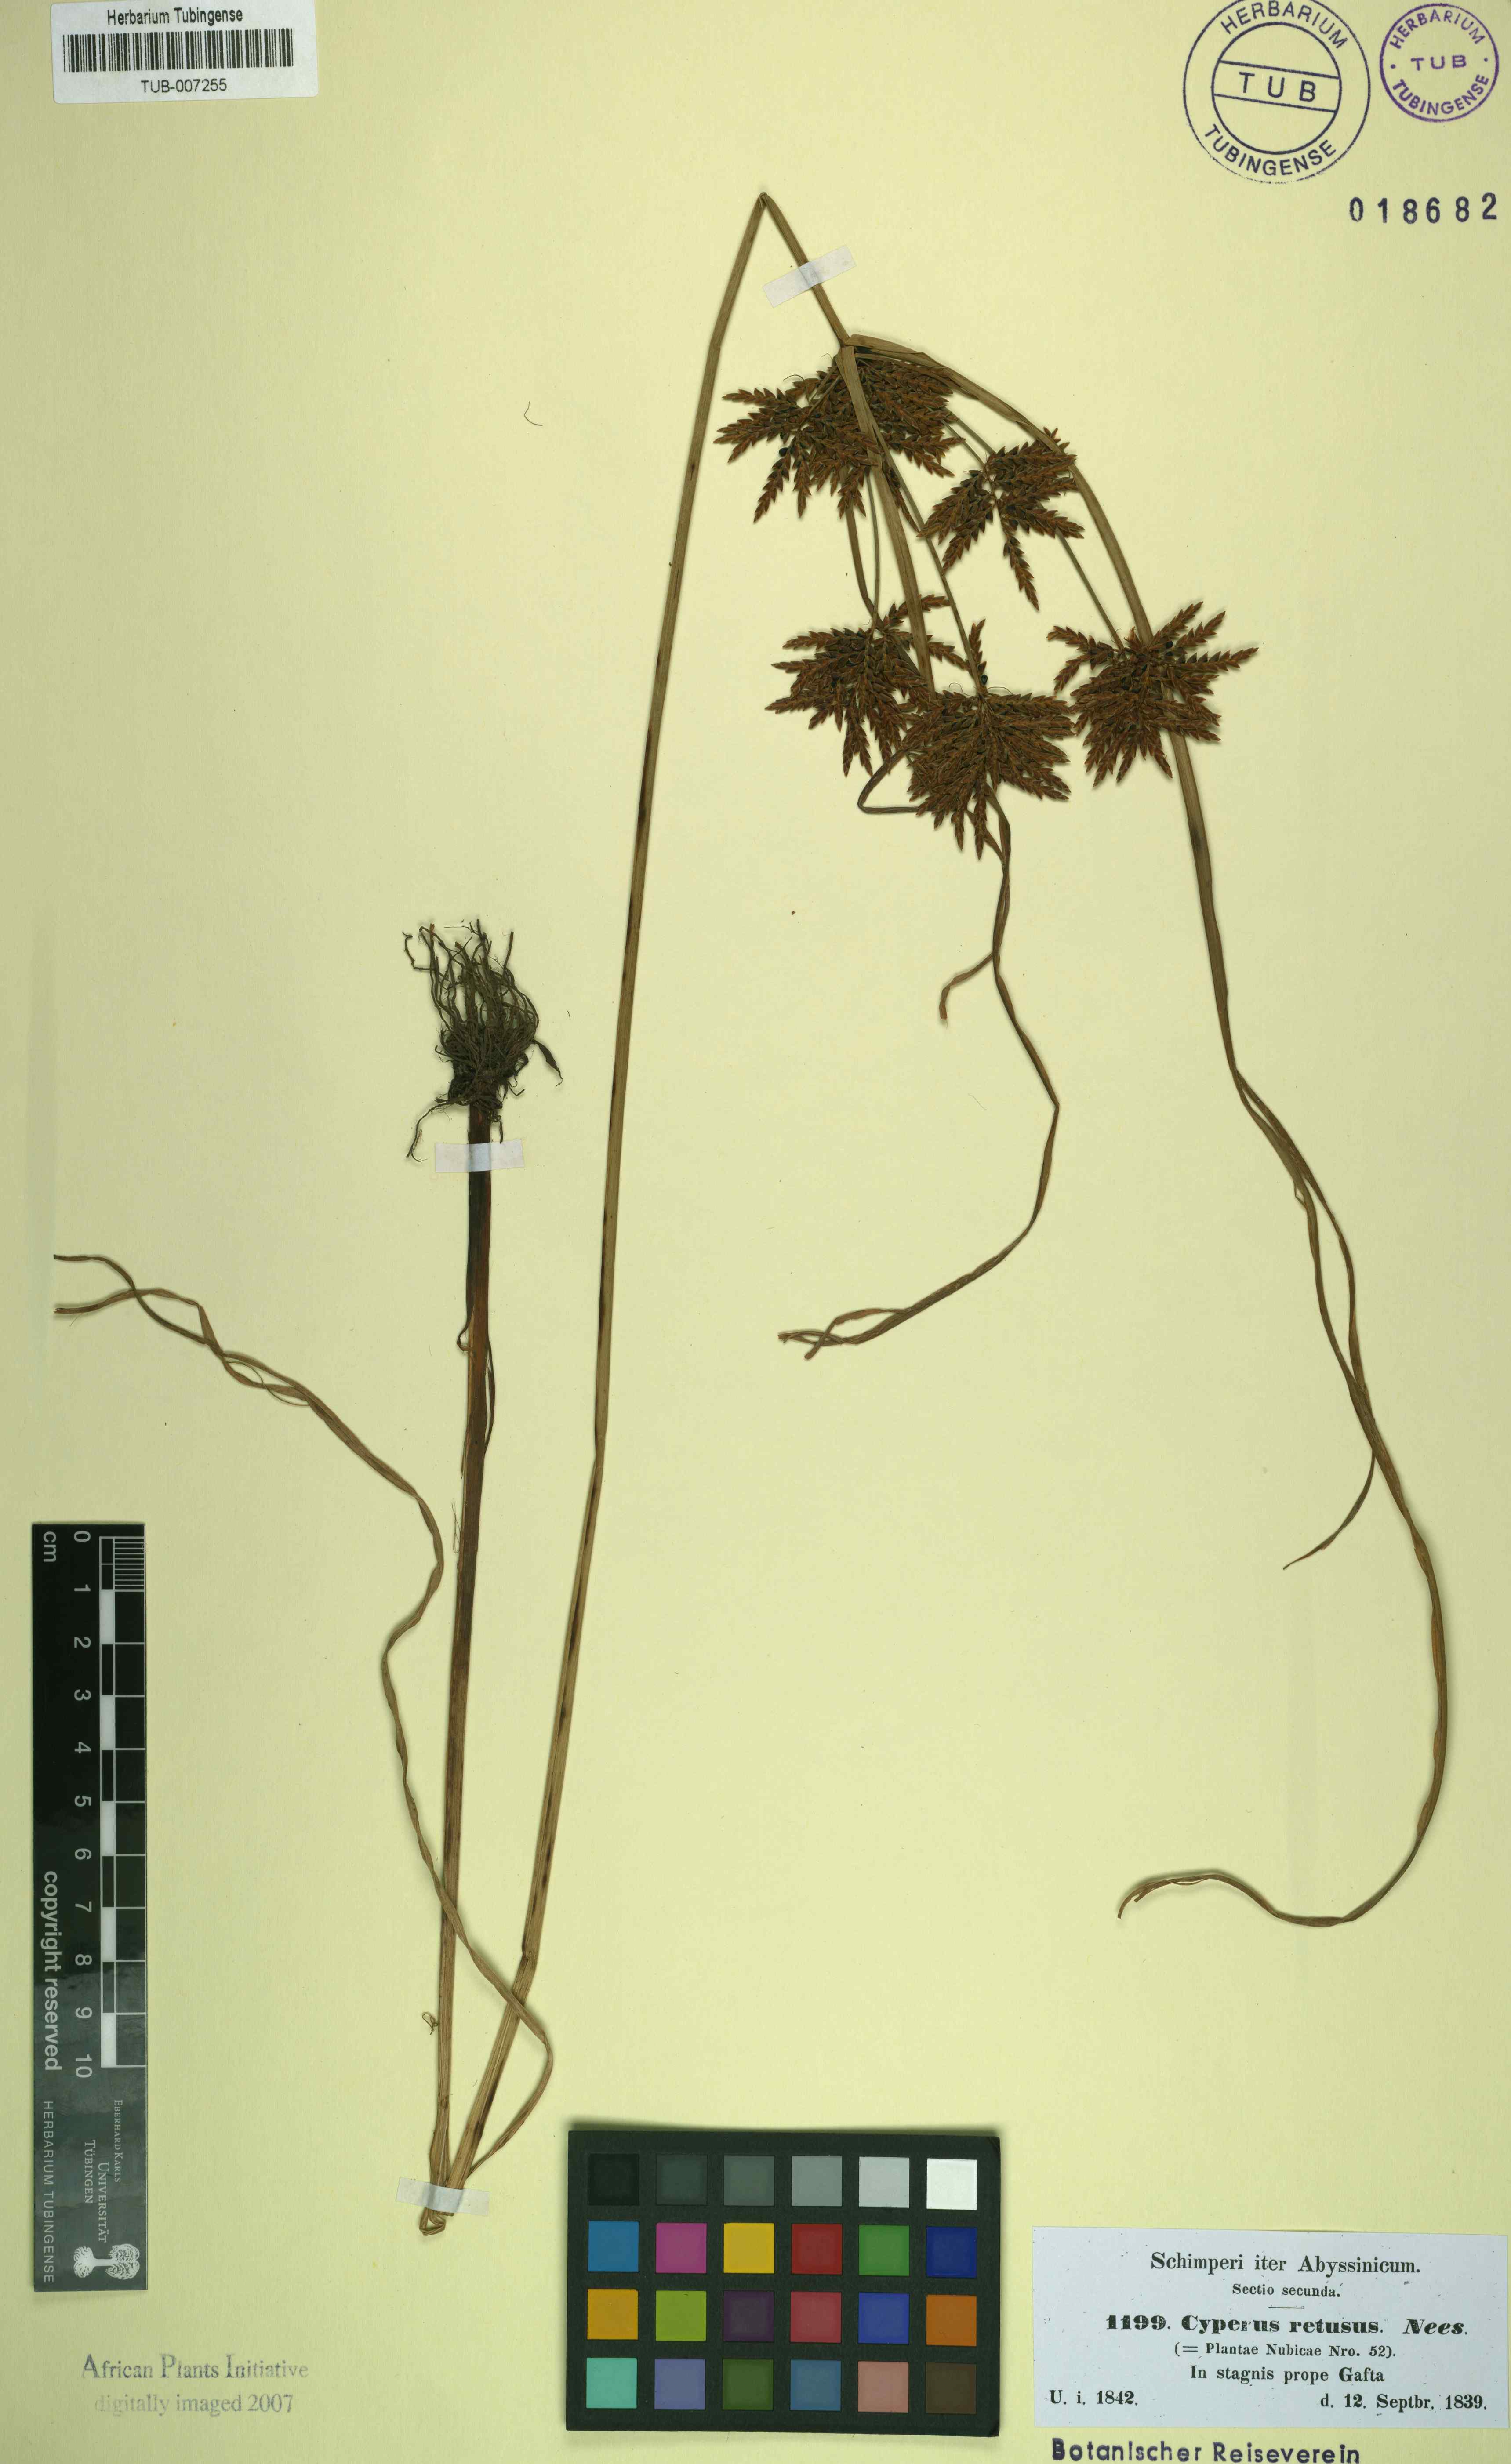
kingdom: Plantae
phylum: Tracheophyta
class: Liliopsida
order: Poales
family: Cyperaceae
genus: Cyperus
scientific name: Cyperus esculentus
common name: Yellow nutsedge
